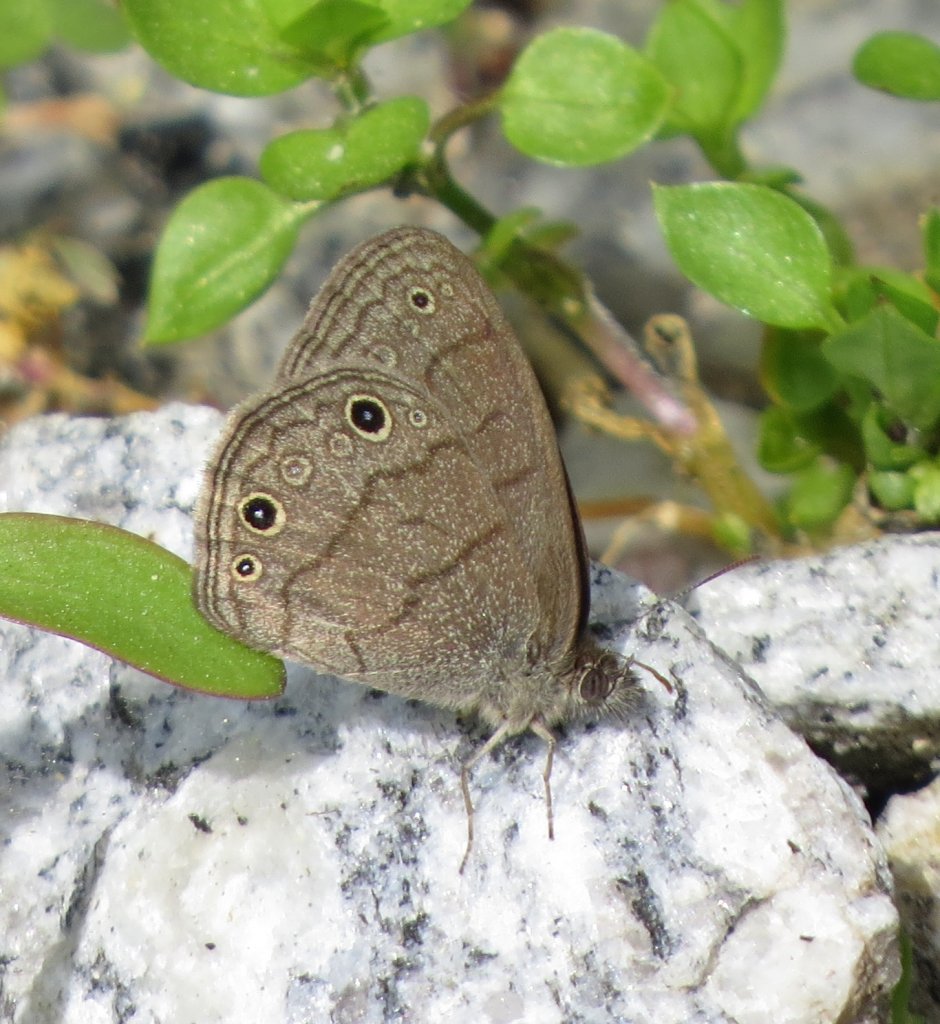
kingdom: Animalia
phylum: Arthropoda
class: Insecta
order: Lepidoptera
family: Nymphalidae
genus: Hermeuptychia
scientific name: Hermeuptychia hermes
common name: Carolina Satyr
